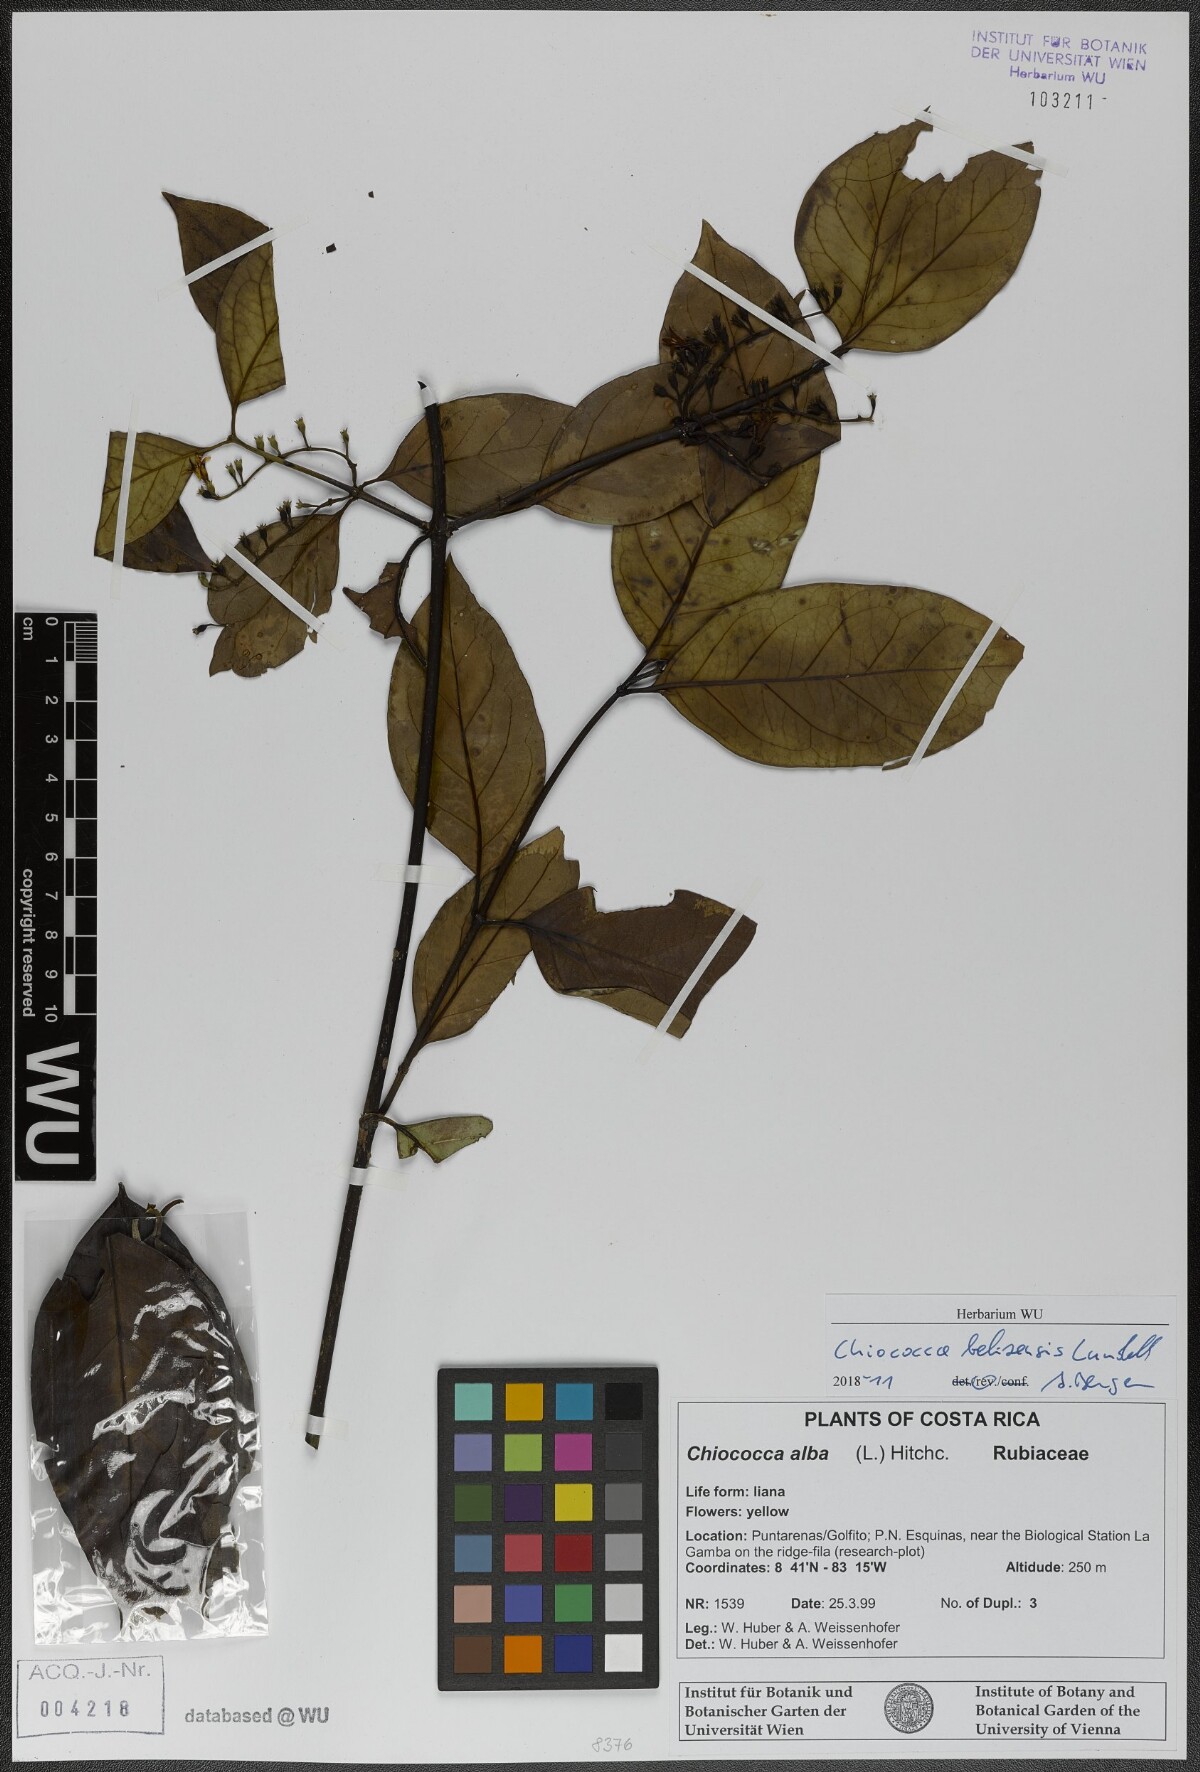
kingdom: Plantae
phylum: Tracheophyta
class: Magnoliopsida
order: Gentianales
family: Rubiaceae
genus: Chiococca
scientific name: Chiococca belizensis
